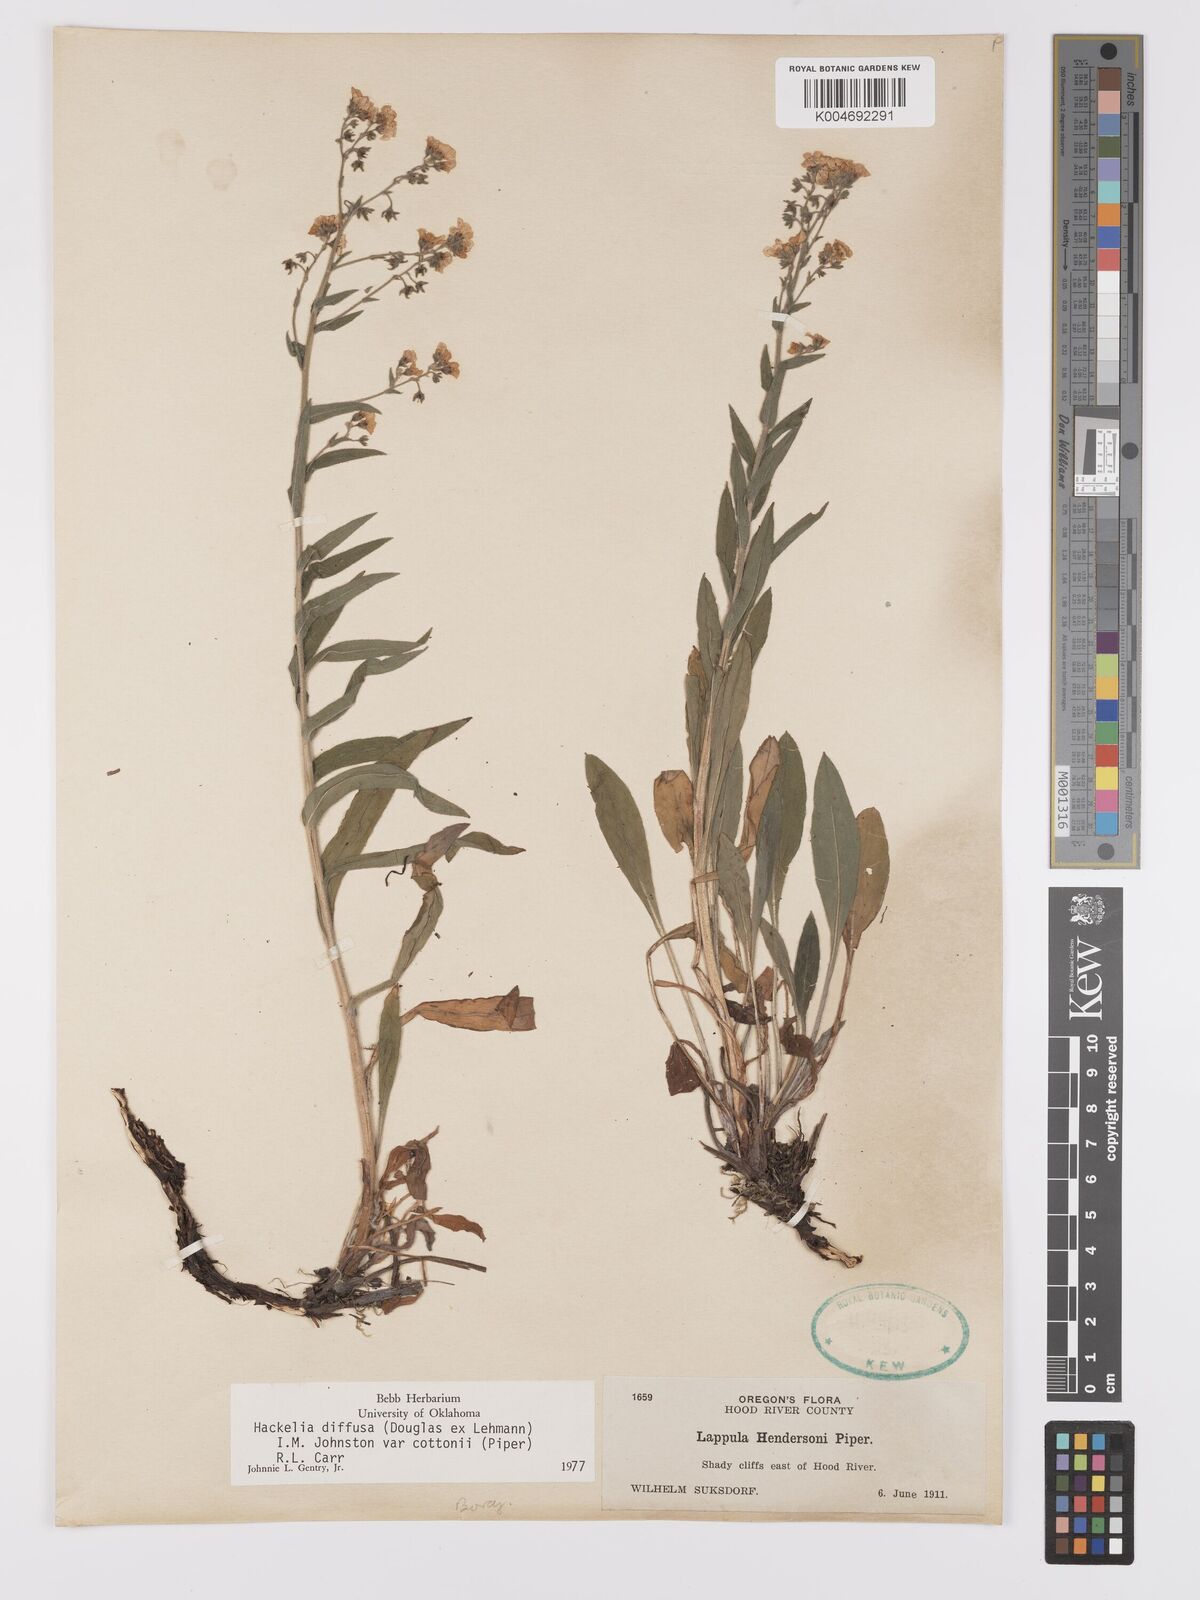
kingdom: Plantae
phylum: Tracheophyta
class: Magnoliopsida
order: Boraginales
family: Boraginaceae
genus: Hackelia
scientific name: Hackelia diffusa
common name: Spreading hackelia
